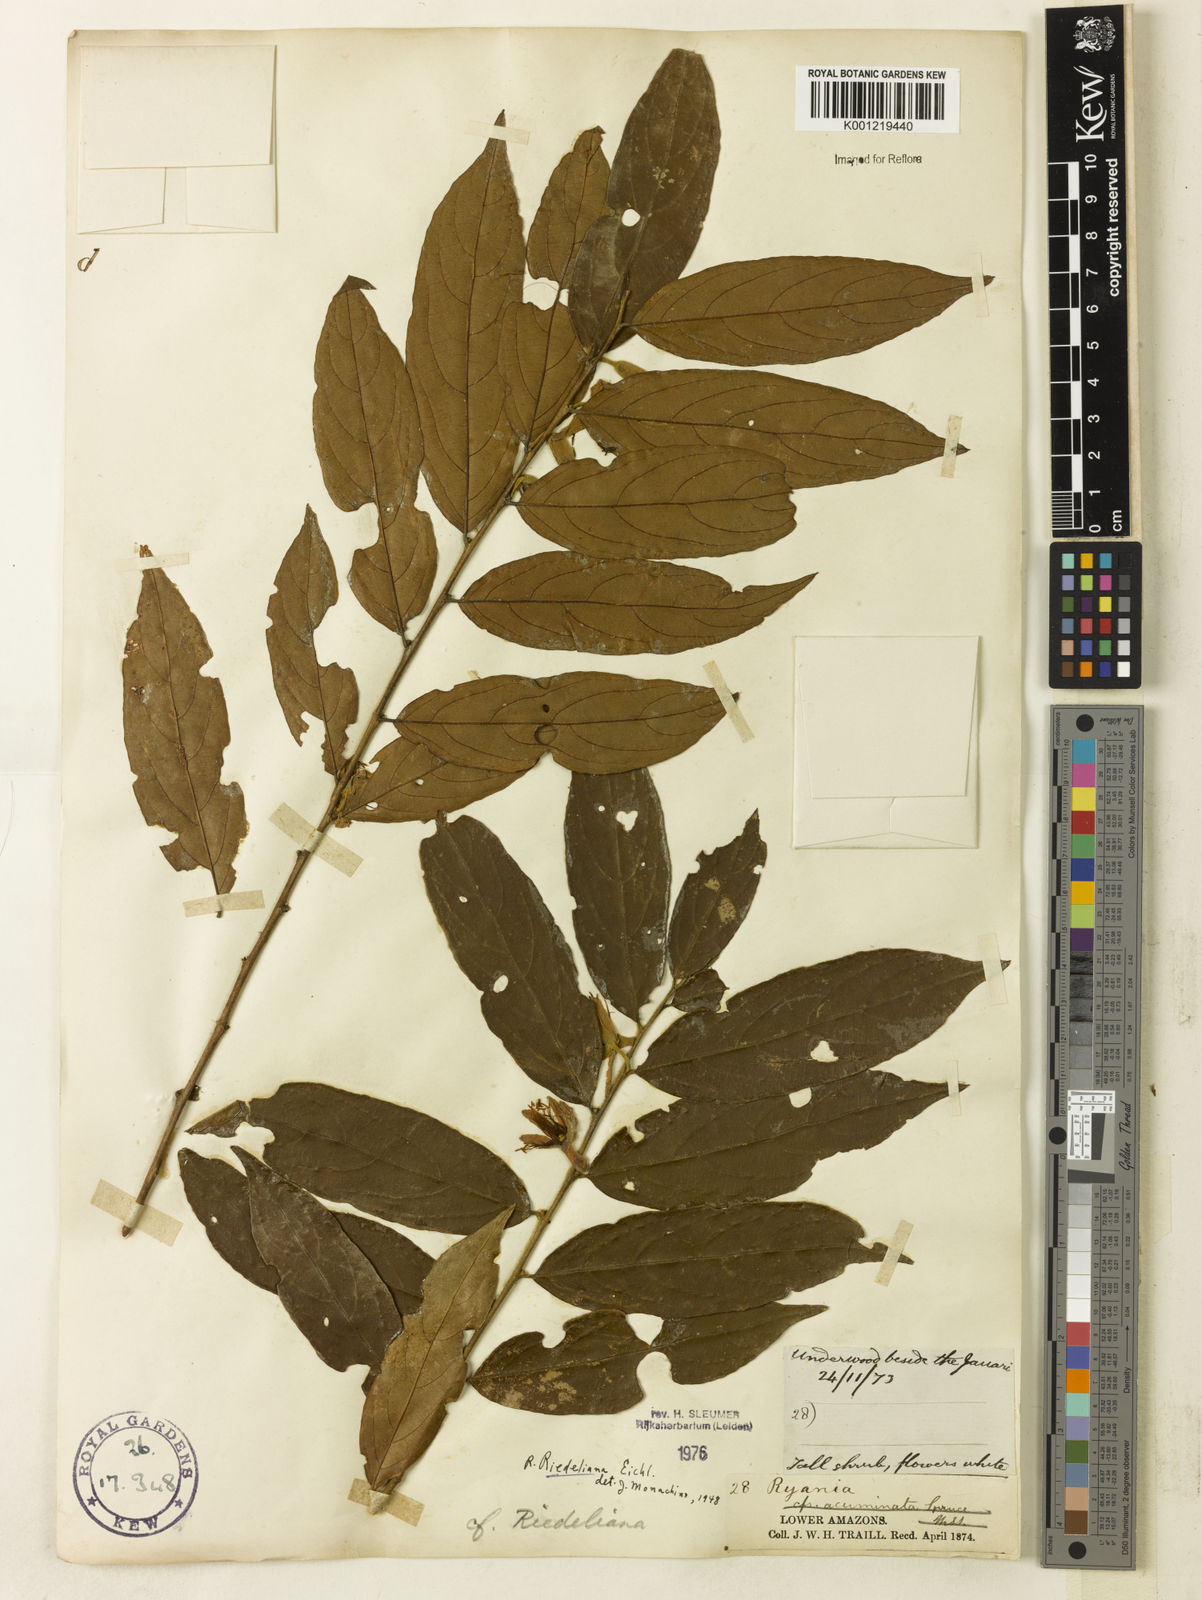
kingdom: Plantae
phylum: Tracheophyta
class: Magnoliopsida
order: Malpighiales
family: Salicaceae
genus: Ryania
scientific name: Ryania riedeliana
